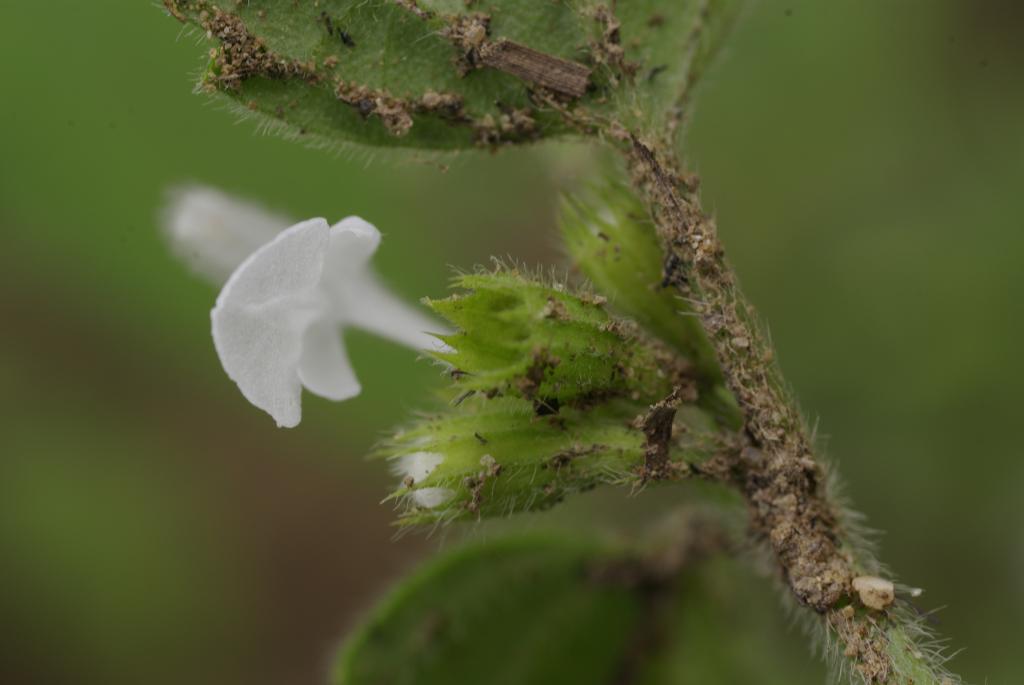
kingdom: Plantae
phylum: Tracheophyta
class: Magnoliopsida
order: Lamiales
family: Lamiaceae
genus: Leucas
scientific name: Leucas chinensis
